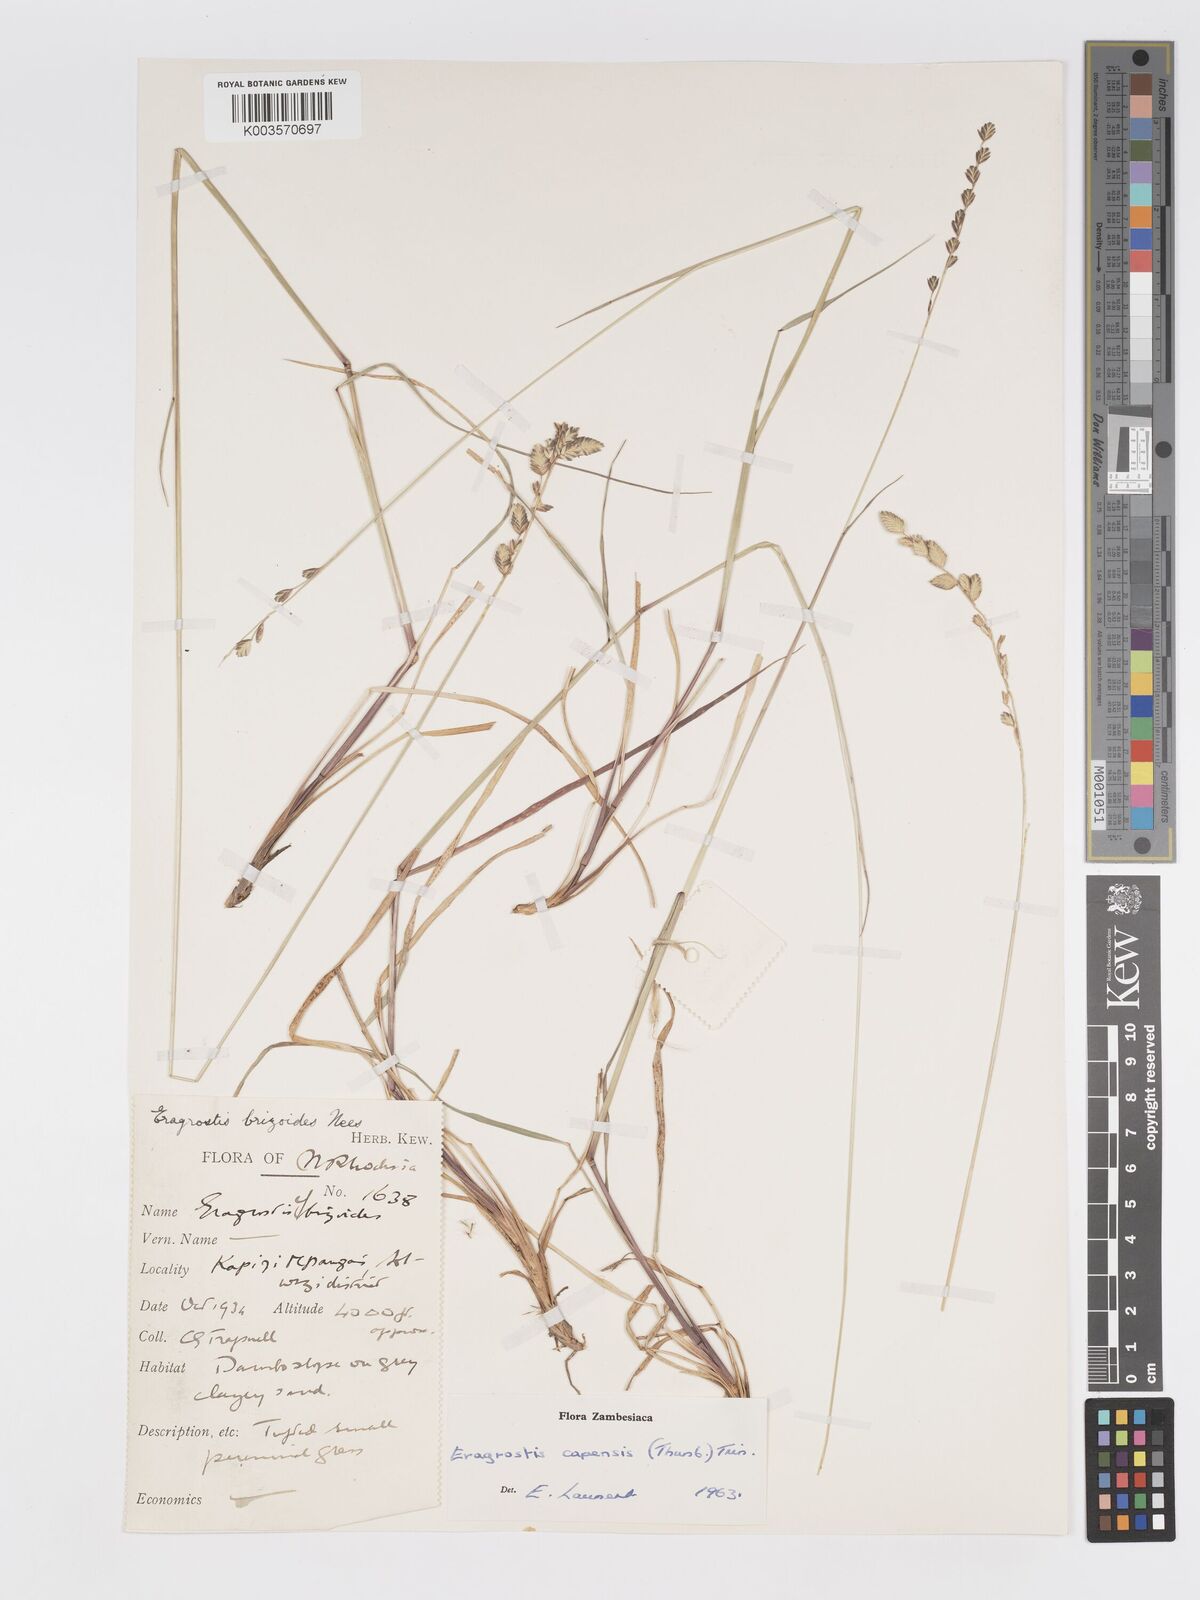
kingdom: Plantae
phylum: Tracheophyta
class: Liliopsida
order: Poales
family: Poaceae
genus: Eragrostis
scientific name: Eragrostis capensis
